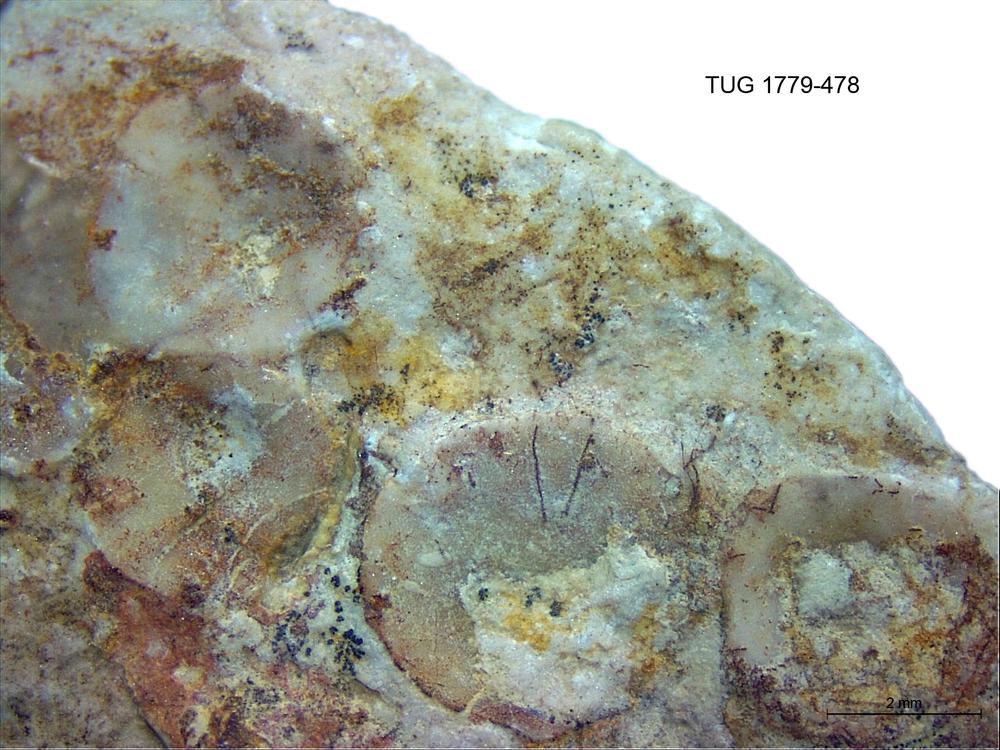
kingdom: Animalia
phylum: Brachiopoda
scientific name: Brachiopoda
